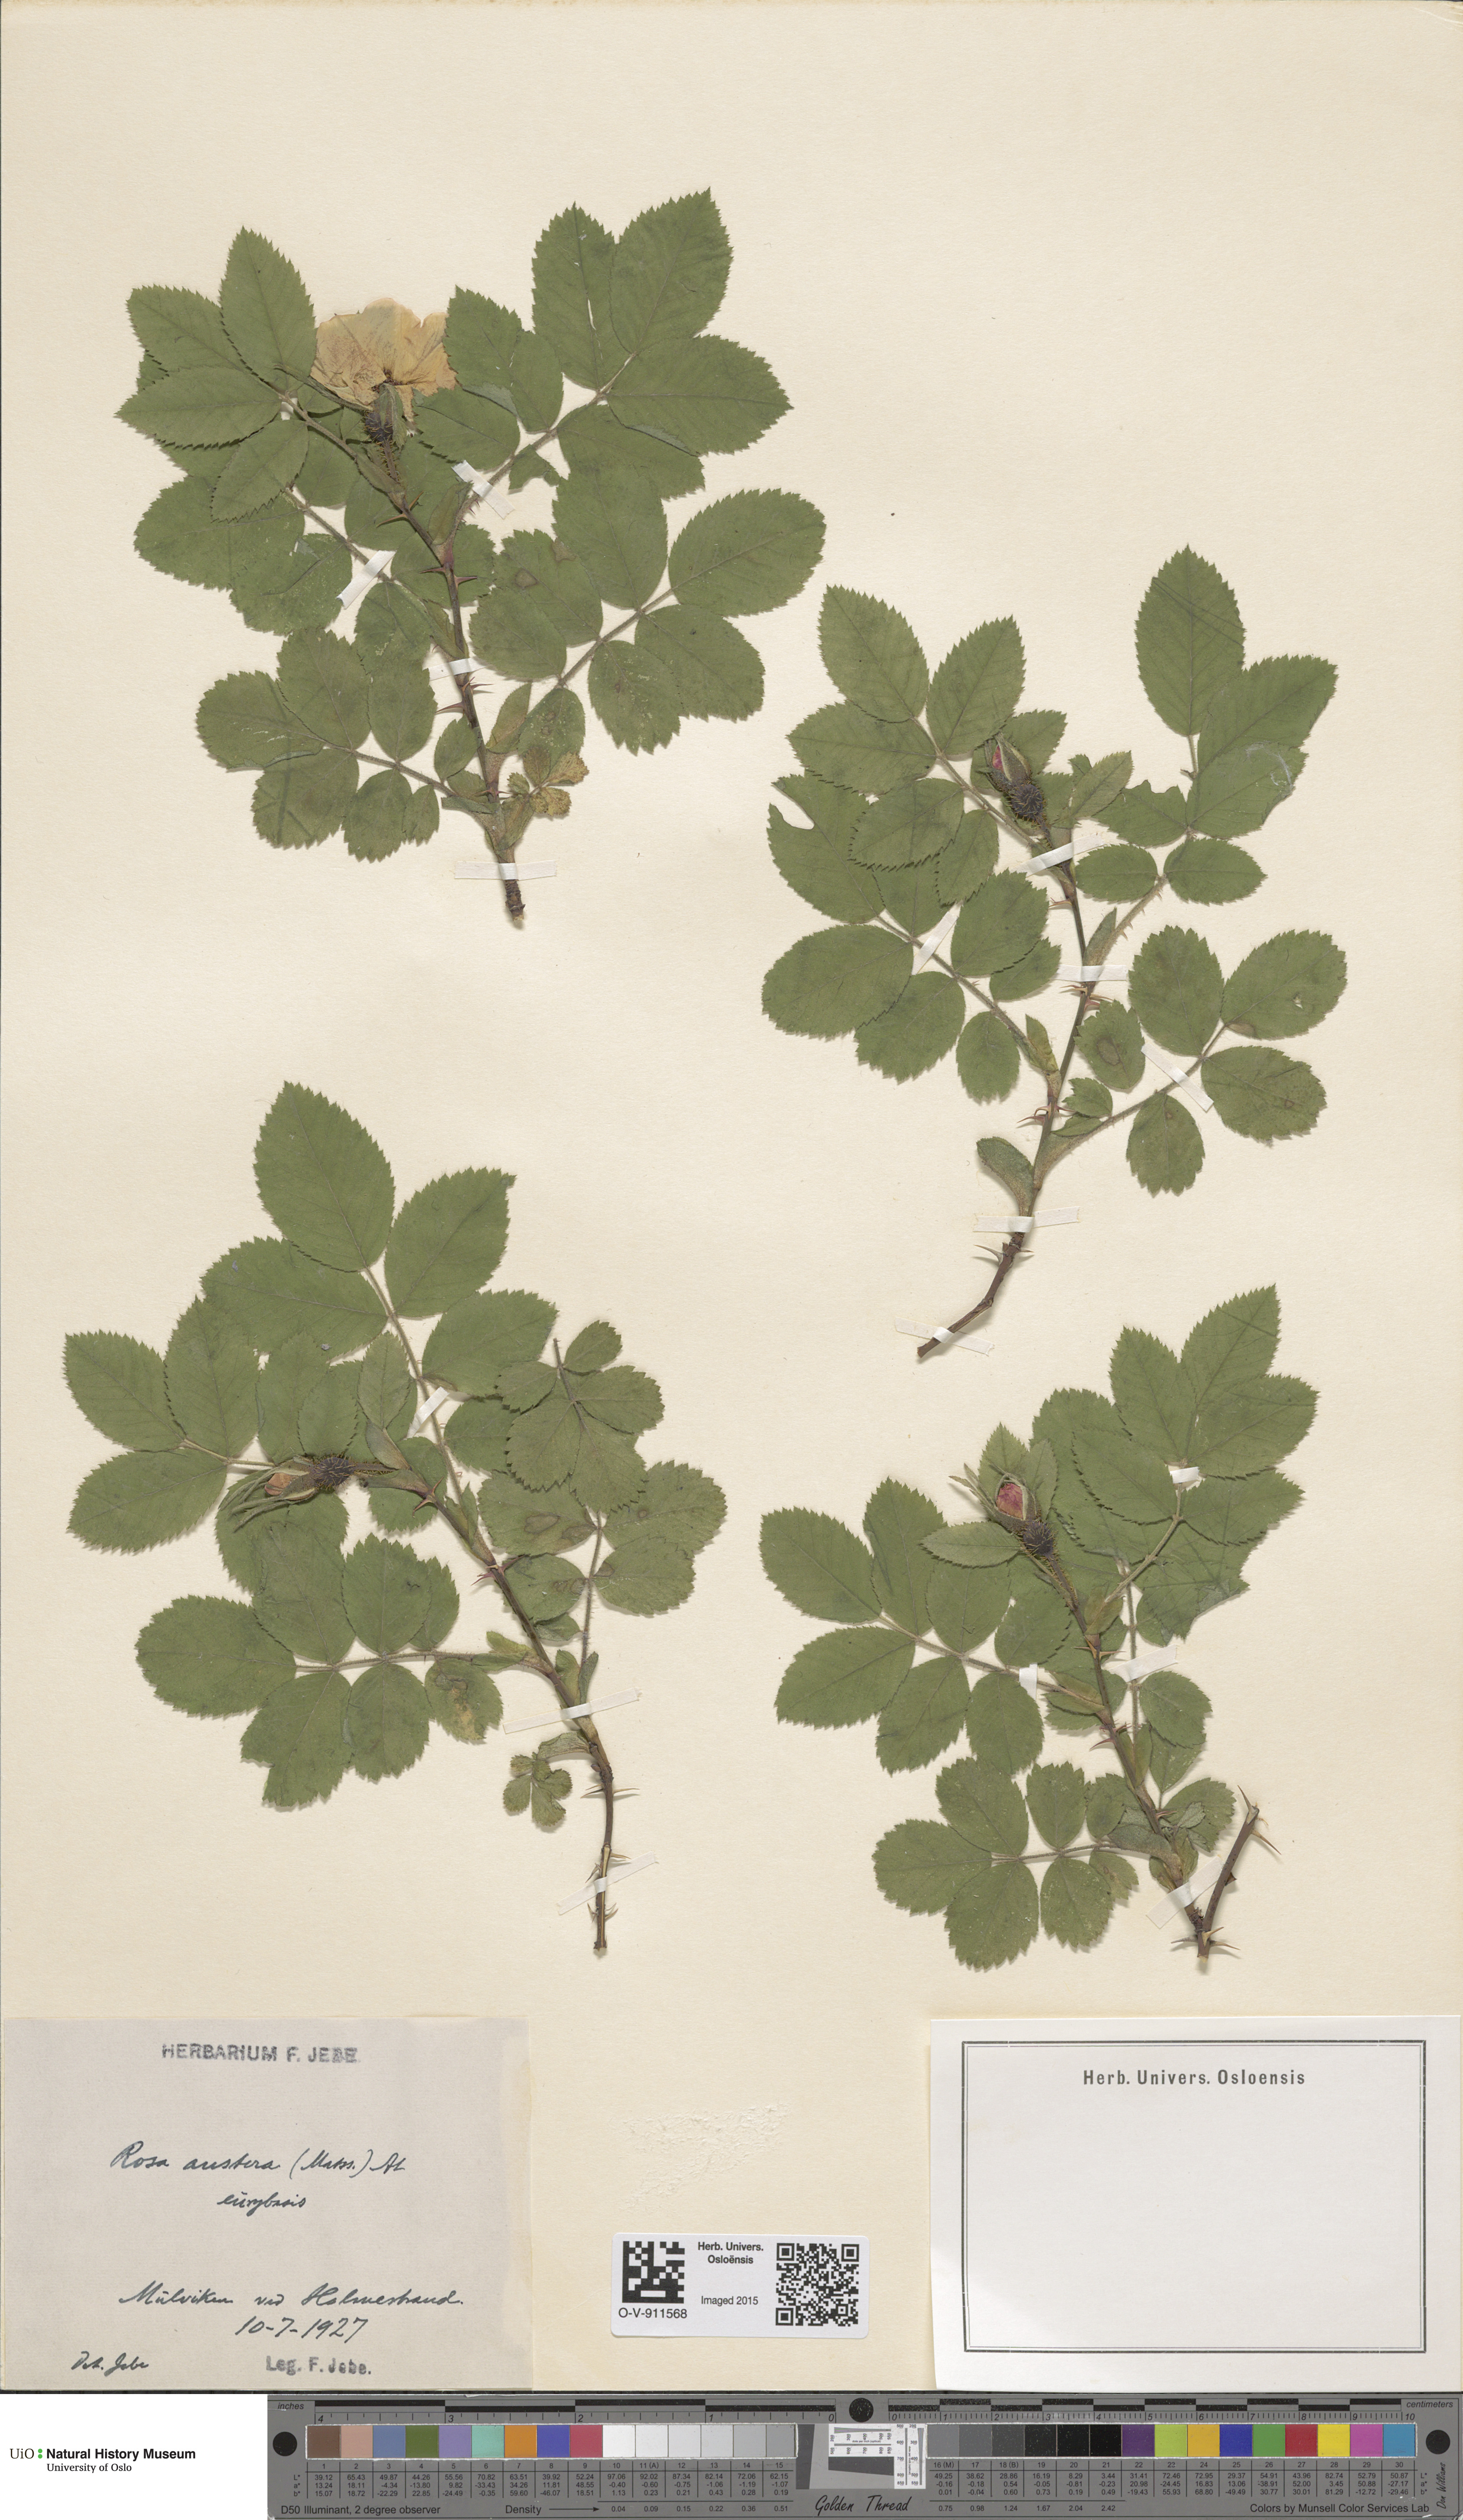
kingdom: Plantae
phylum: Tracheophyta
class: Magnoliopsida
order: Rosales
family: Rosaceae
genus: Rosa
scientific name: Rosa mollis
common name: Rose
